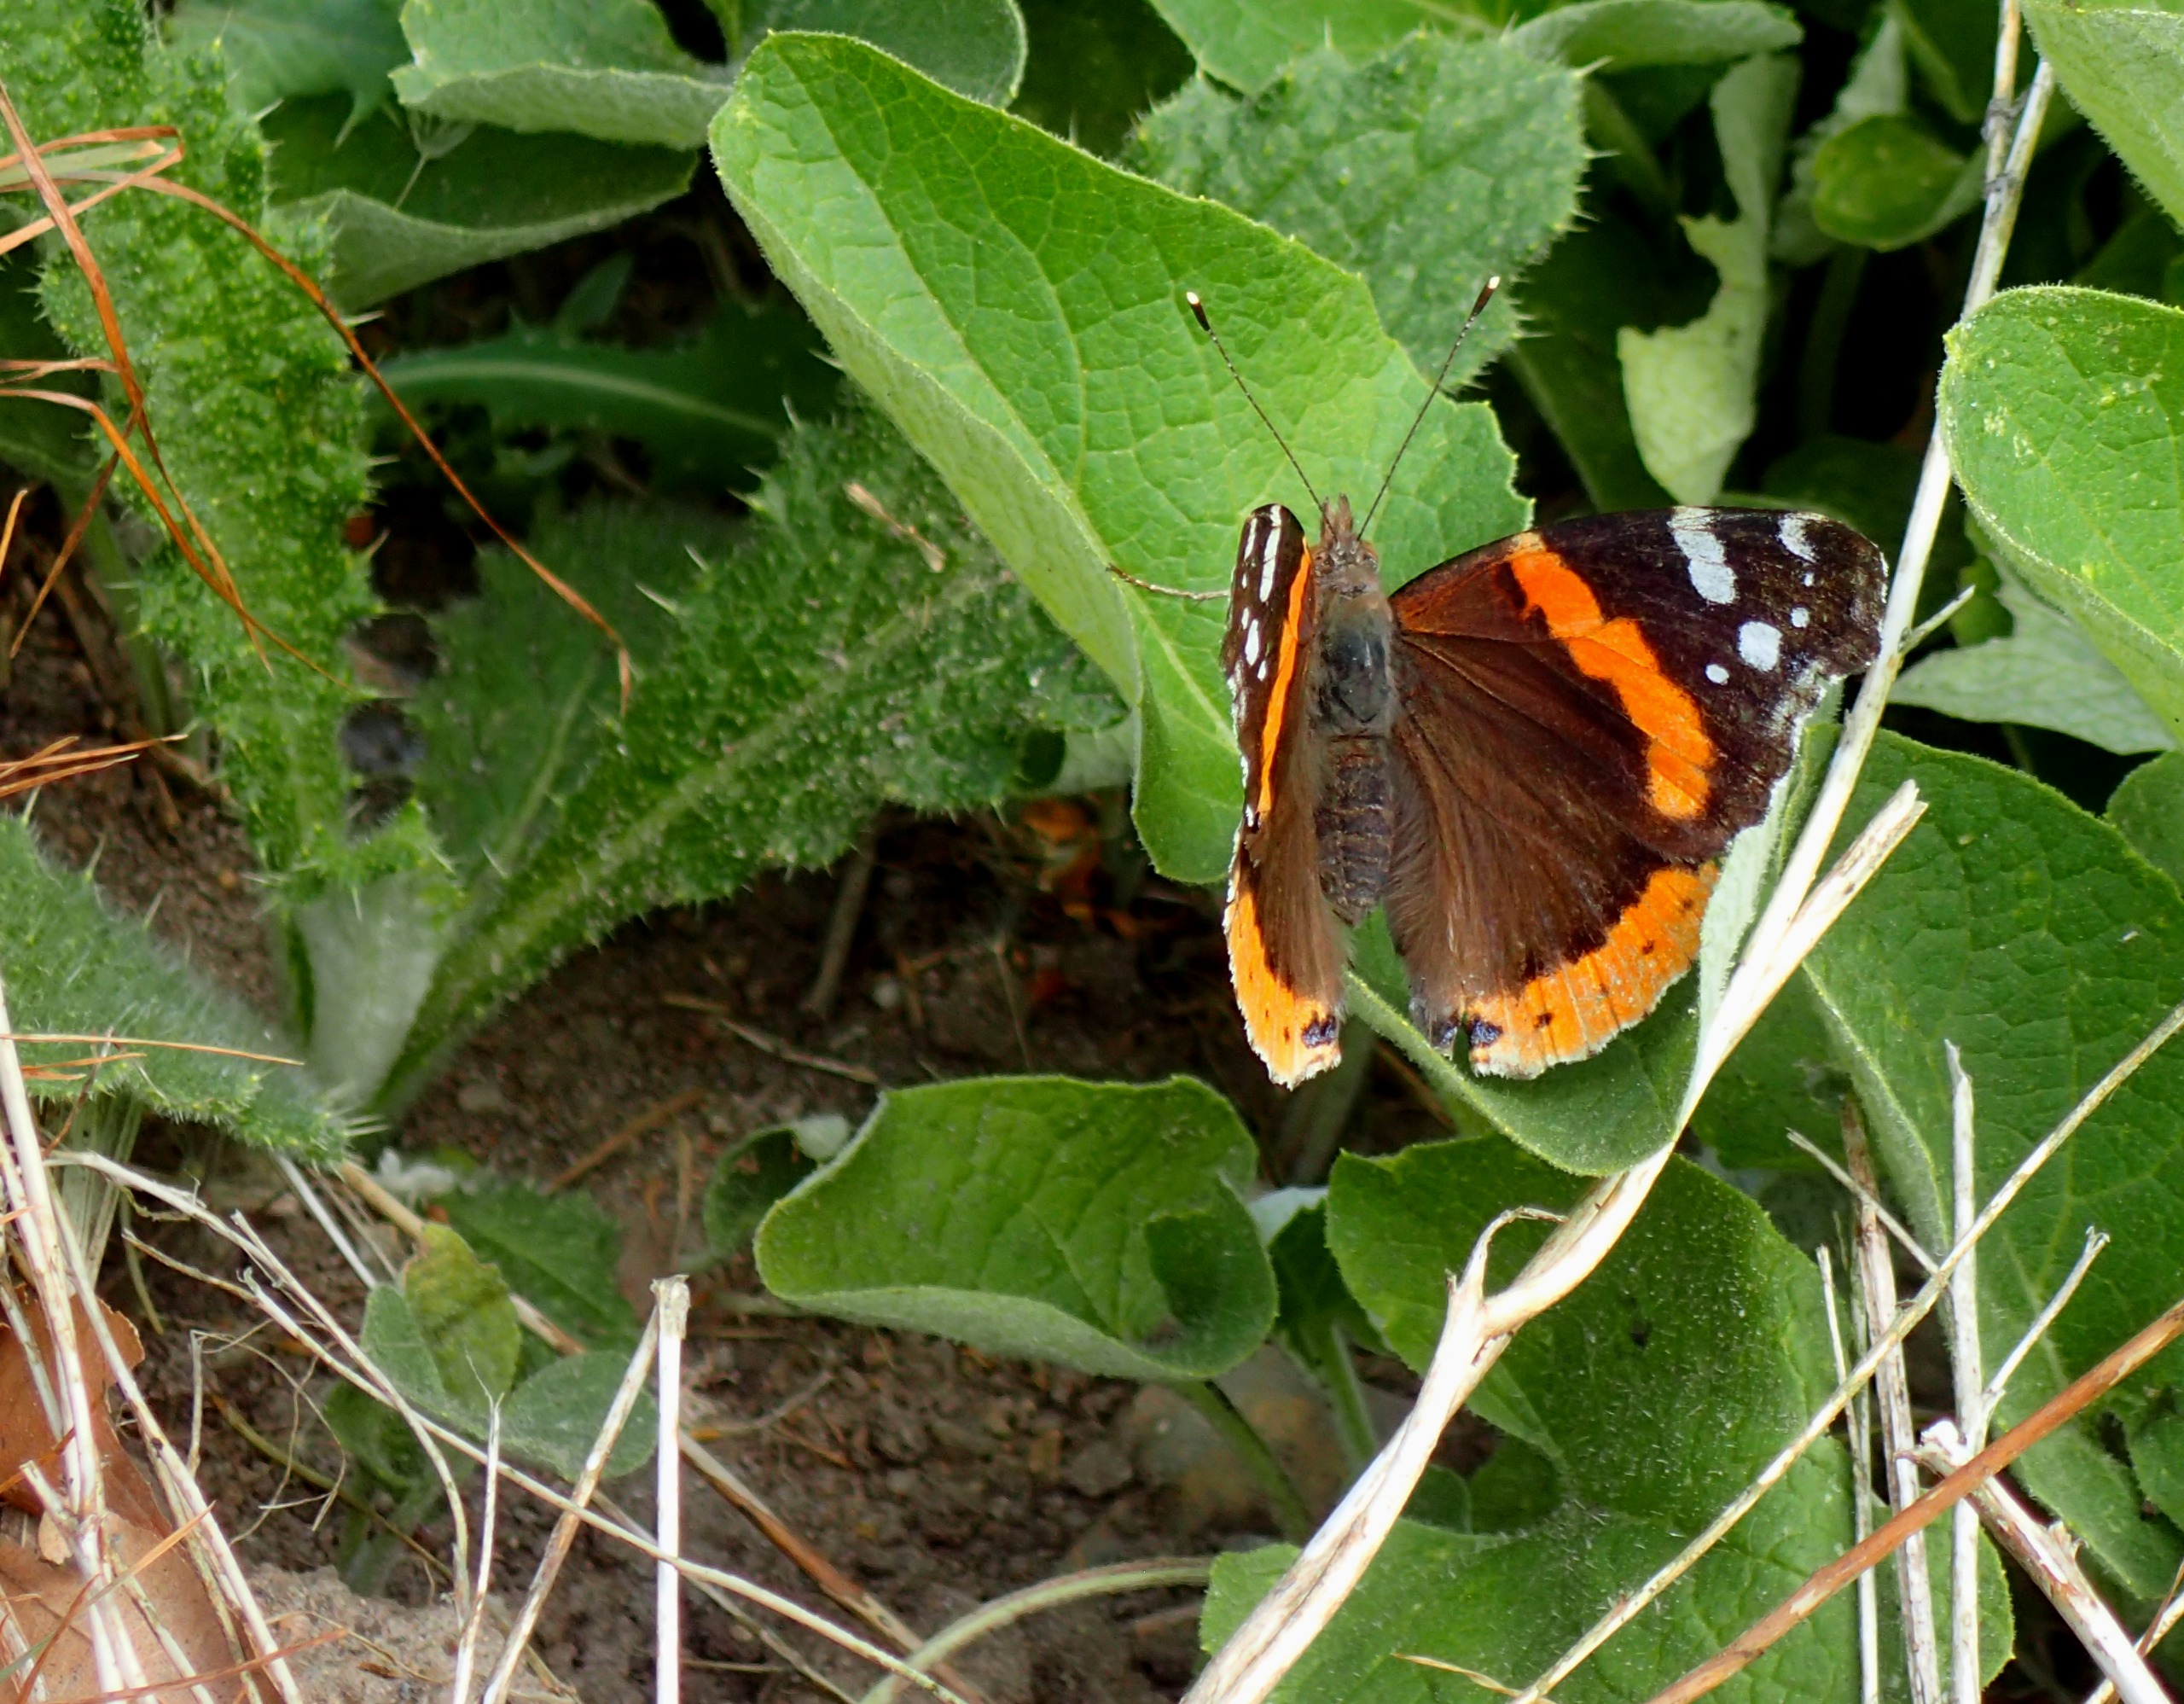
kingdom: Animalia
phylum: Arthropoda
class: Insecta
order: Lepidoptera
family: Nymphalidae
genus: Vanessa
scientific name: Vanessa atalanta
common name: Admiral
